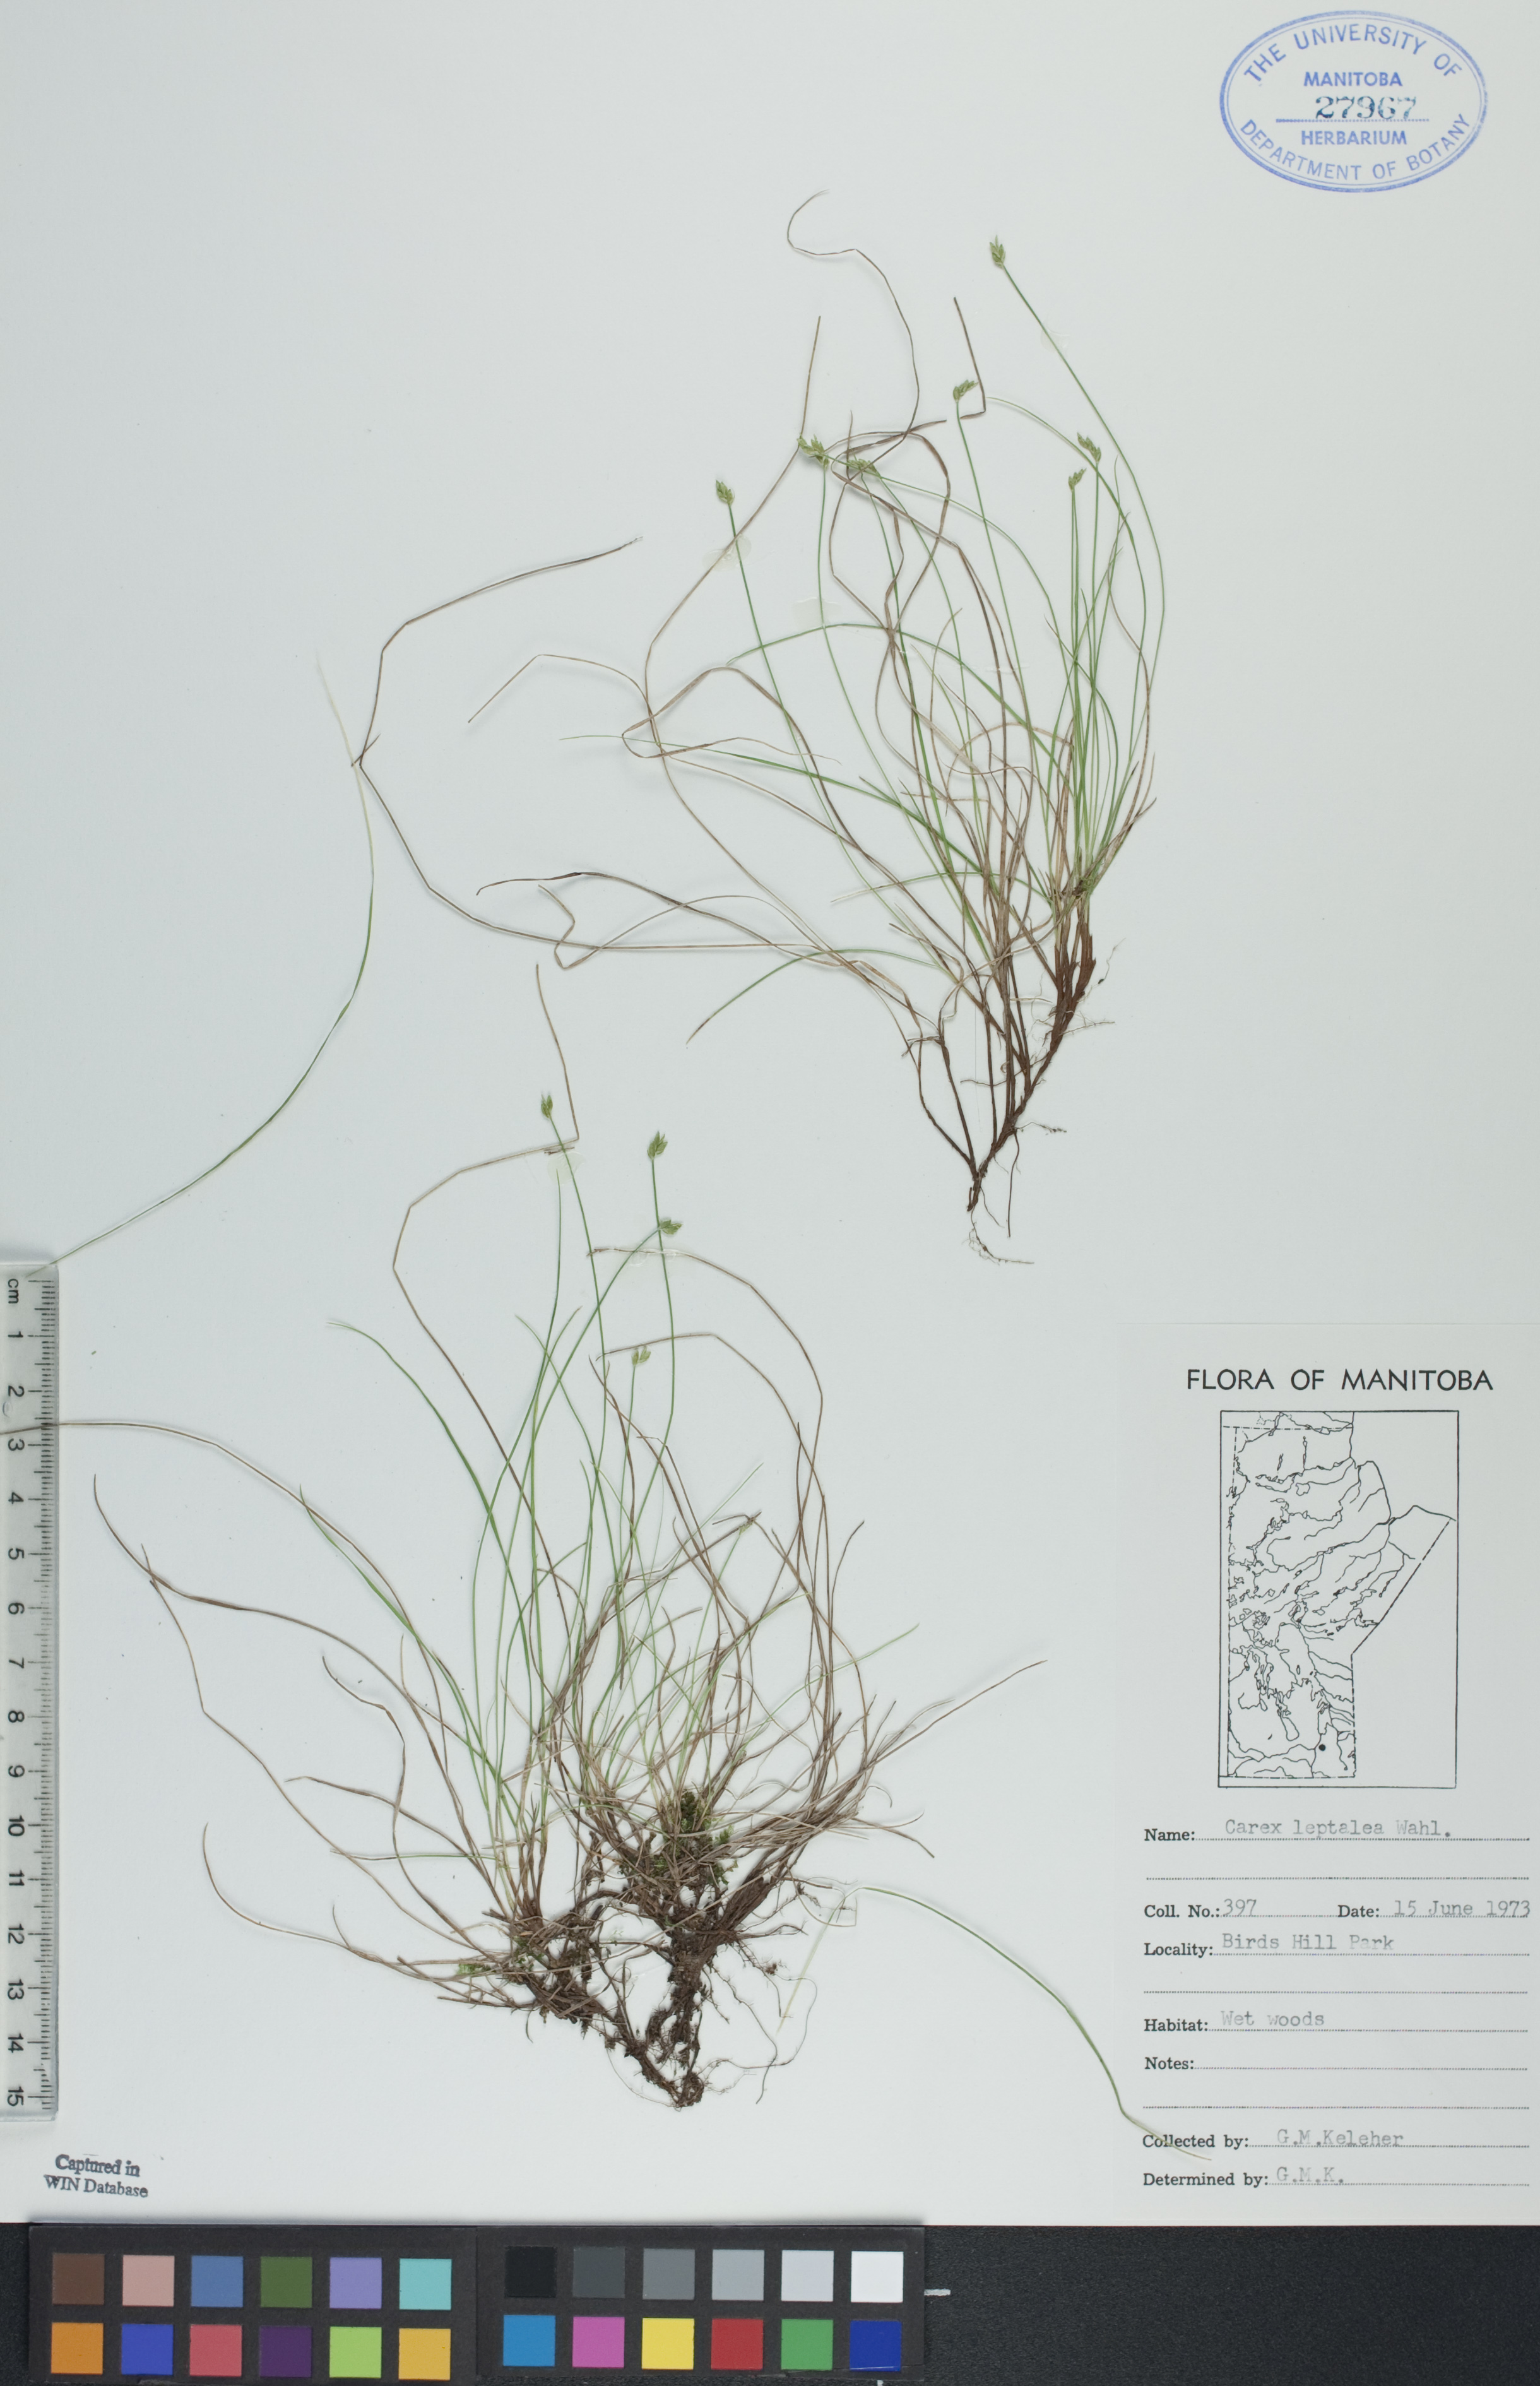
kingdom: Plantae
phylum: Tracheophyta
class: Liliopsida
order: Poales
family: Cyperaceae
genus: Carex
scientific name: Carex leptalea
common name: Bristly-stalked sedge
